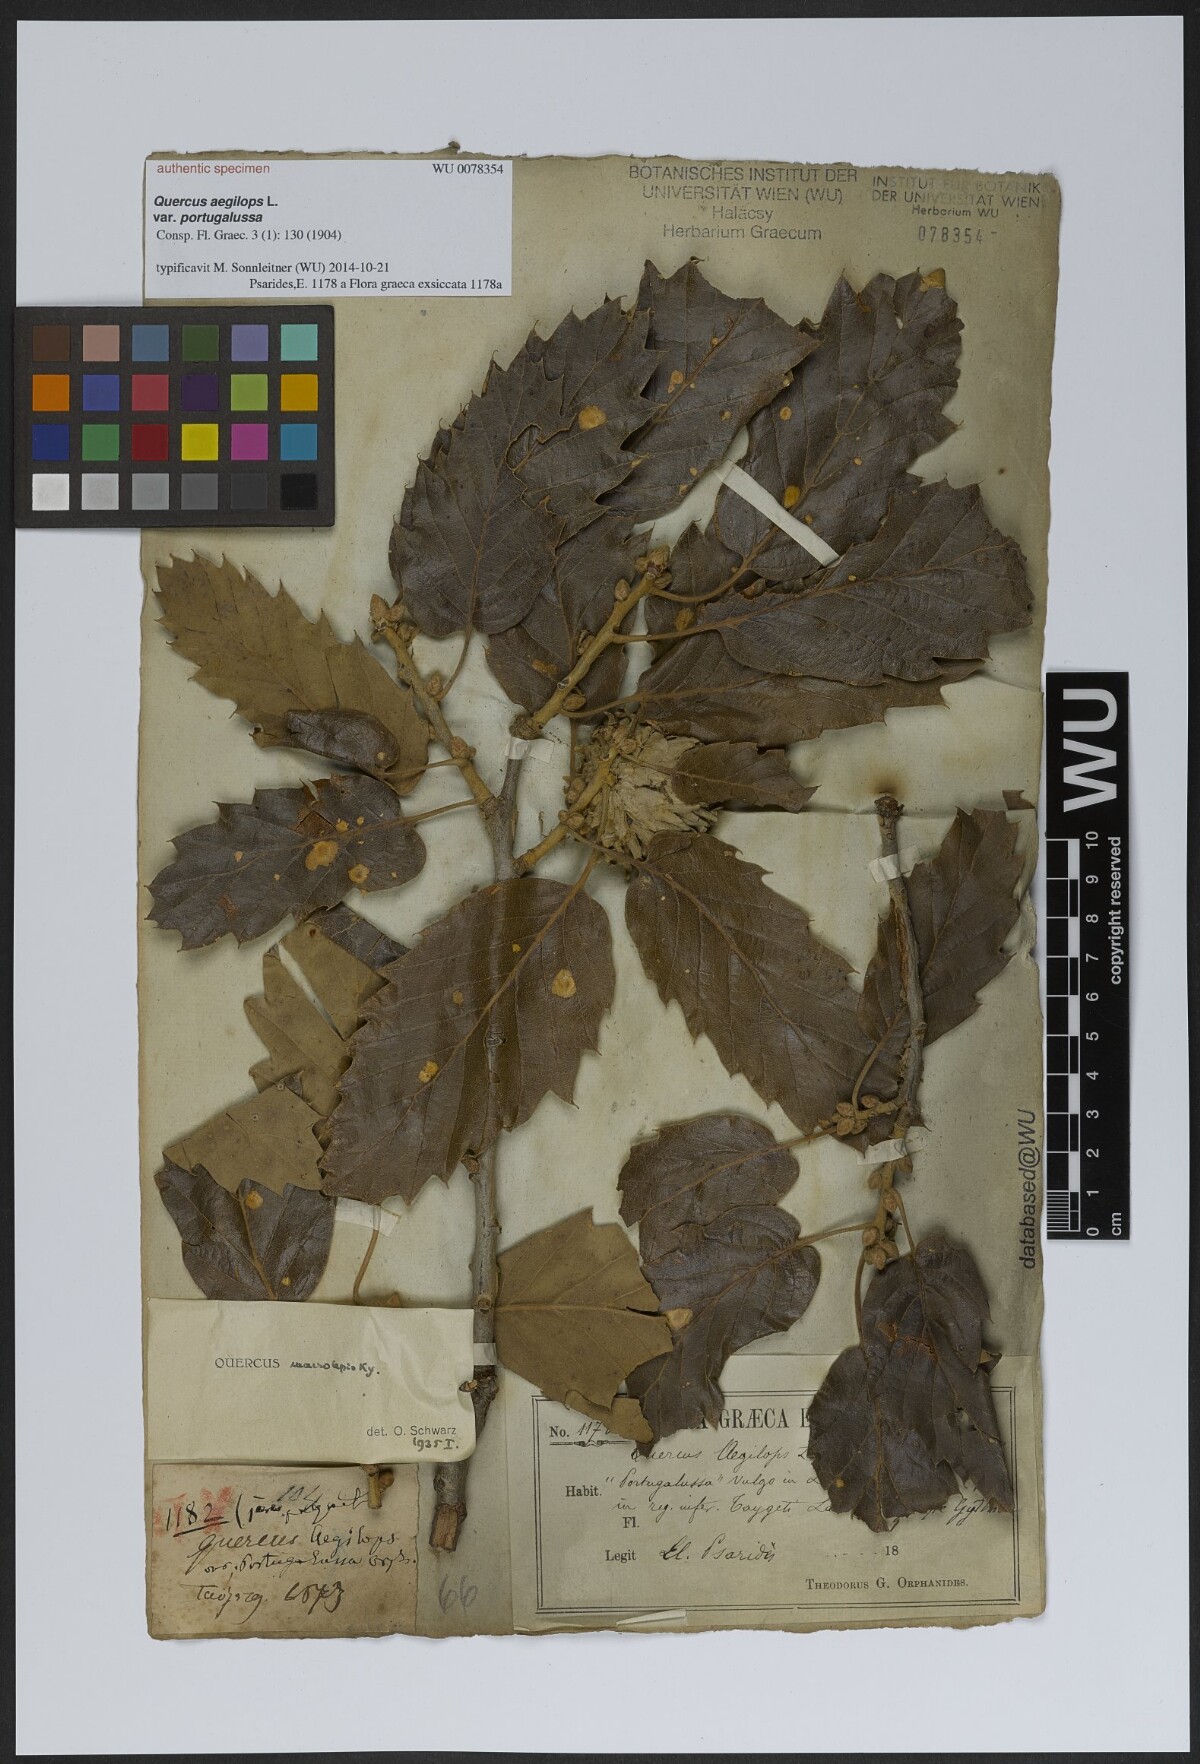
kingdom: Plantae
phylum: Tracheophyta
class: Magnoliopsida
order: Fagales
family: Fagaceae
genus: Quercus
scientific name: Quercus
